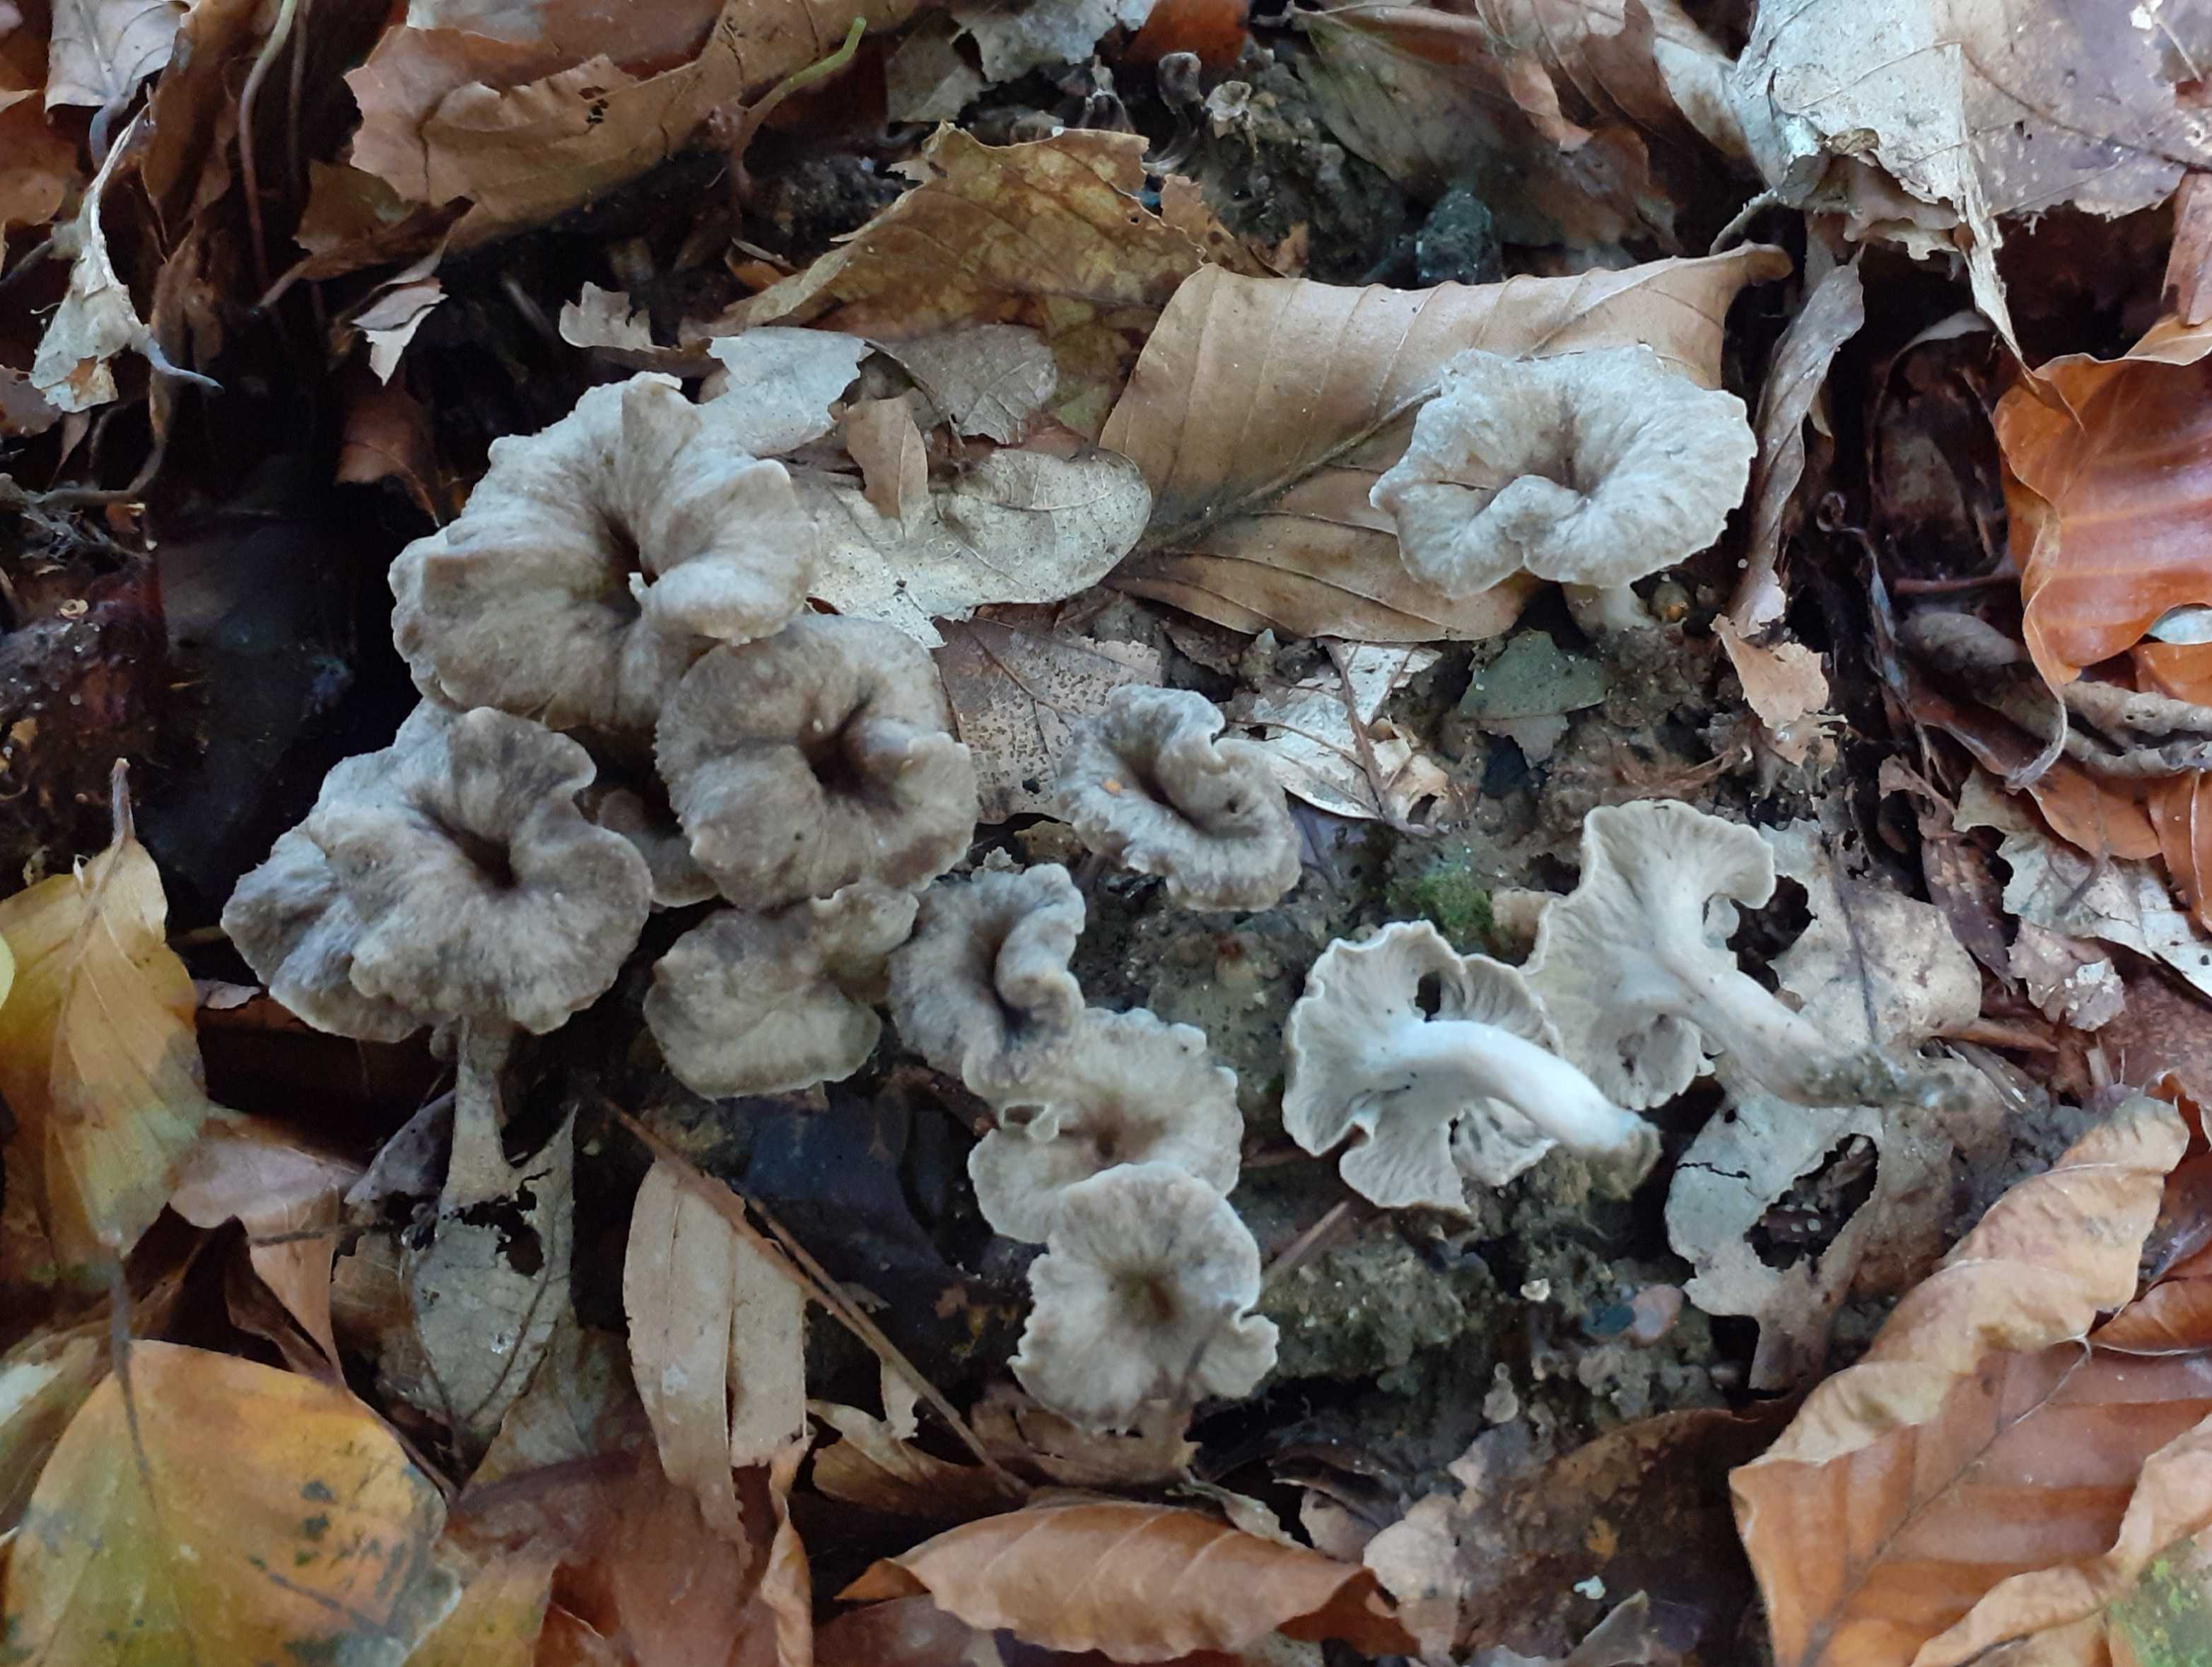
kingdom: Fungi
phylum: Basidiomycota
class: Agaricomycetes
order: Cantharellales
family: Hydnaceae
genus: Craterellus
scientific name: Craterellus undulatus
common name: liden kantarel
